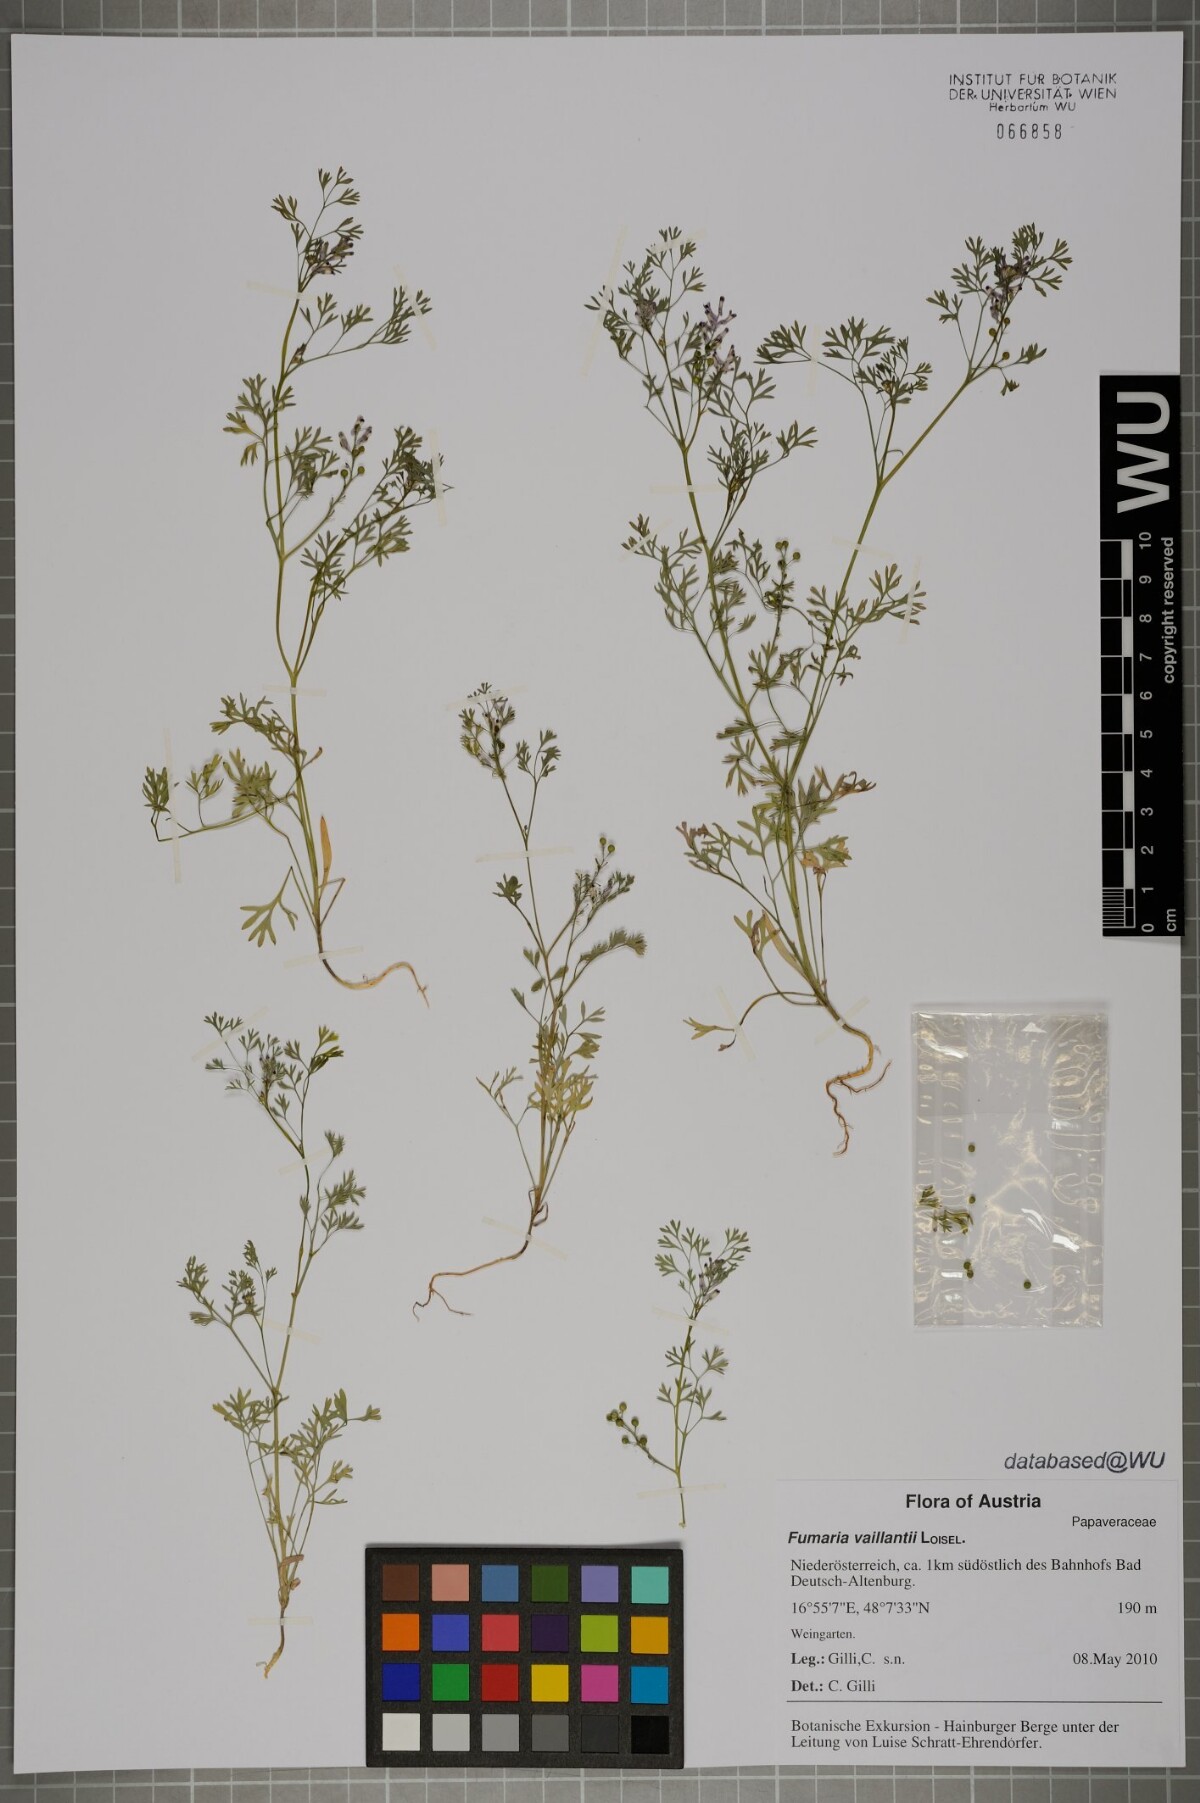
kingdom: Plantae
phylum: Tracheophyta
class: Magnoliopsida
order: Ranunculales
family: Papaveraceae
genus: Fumaria
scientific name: Fumaria vaillantii
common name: Few-flowered fumitory
